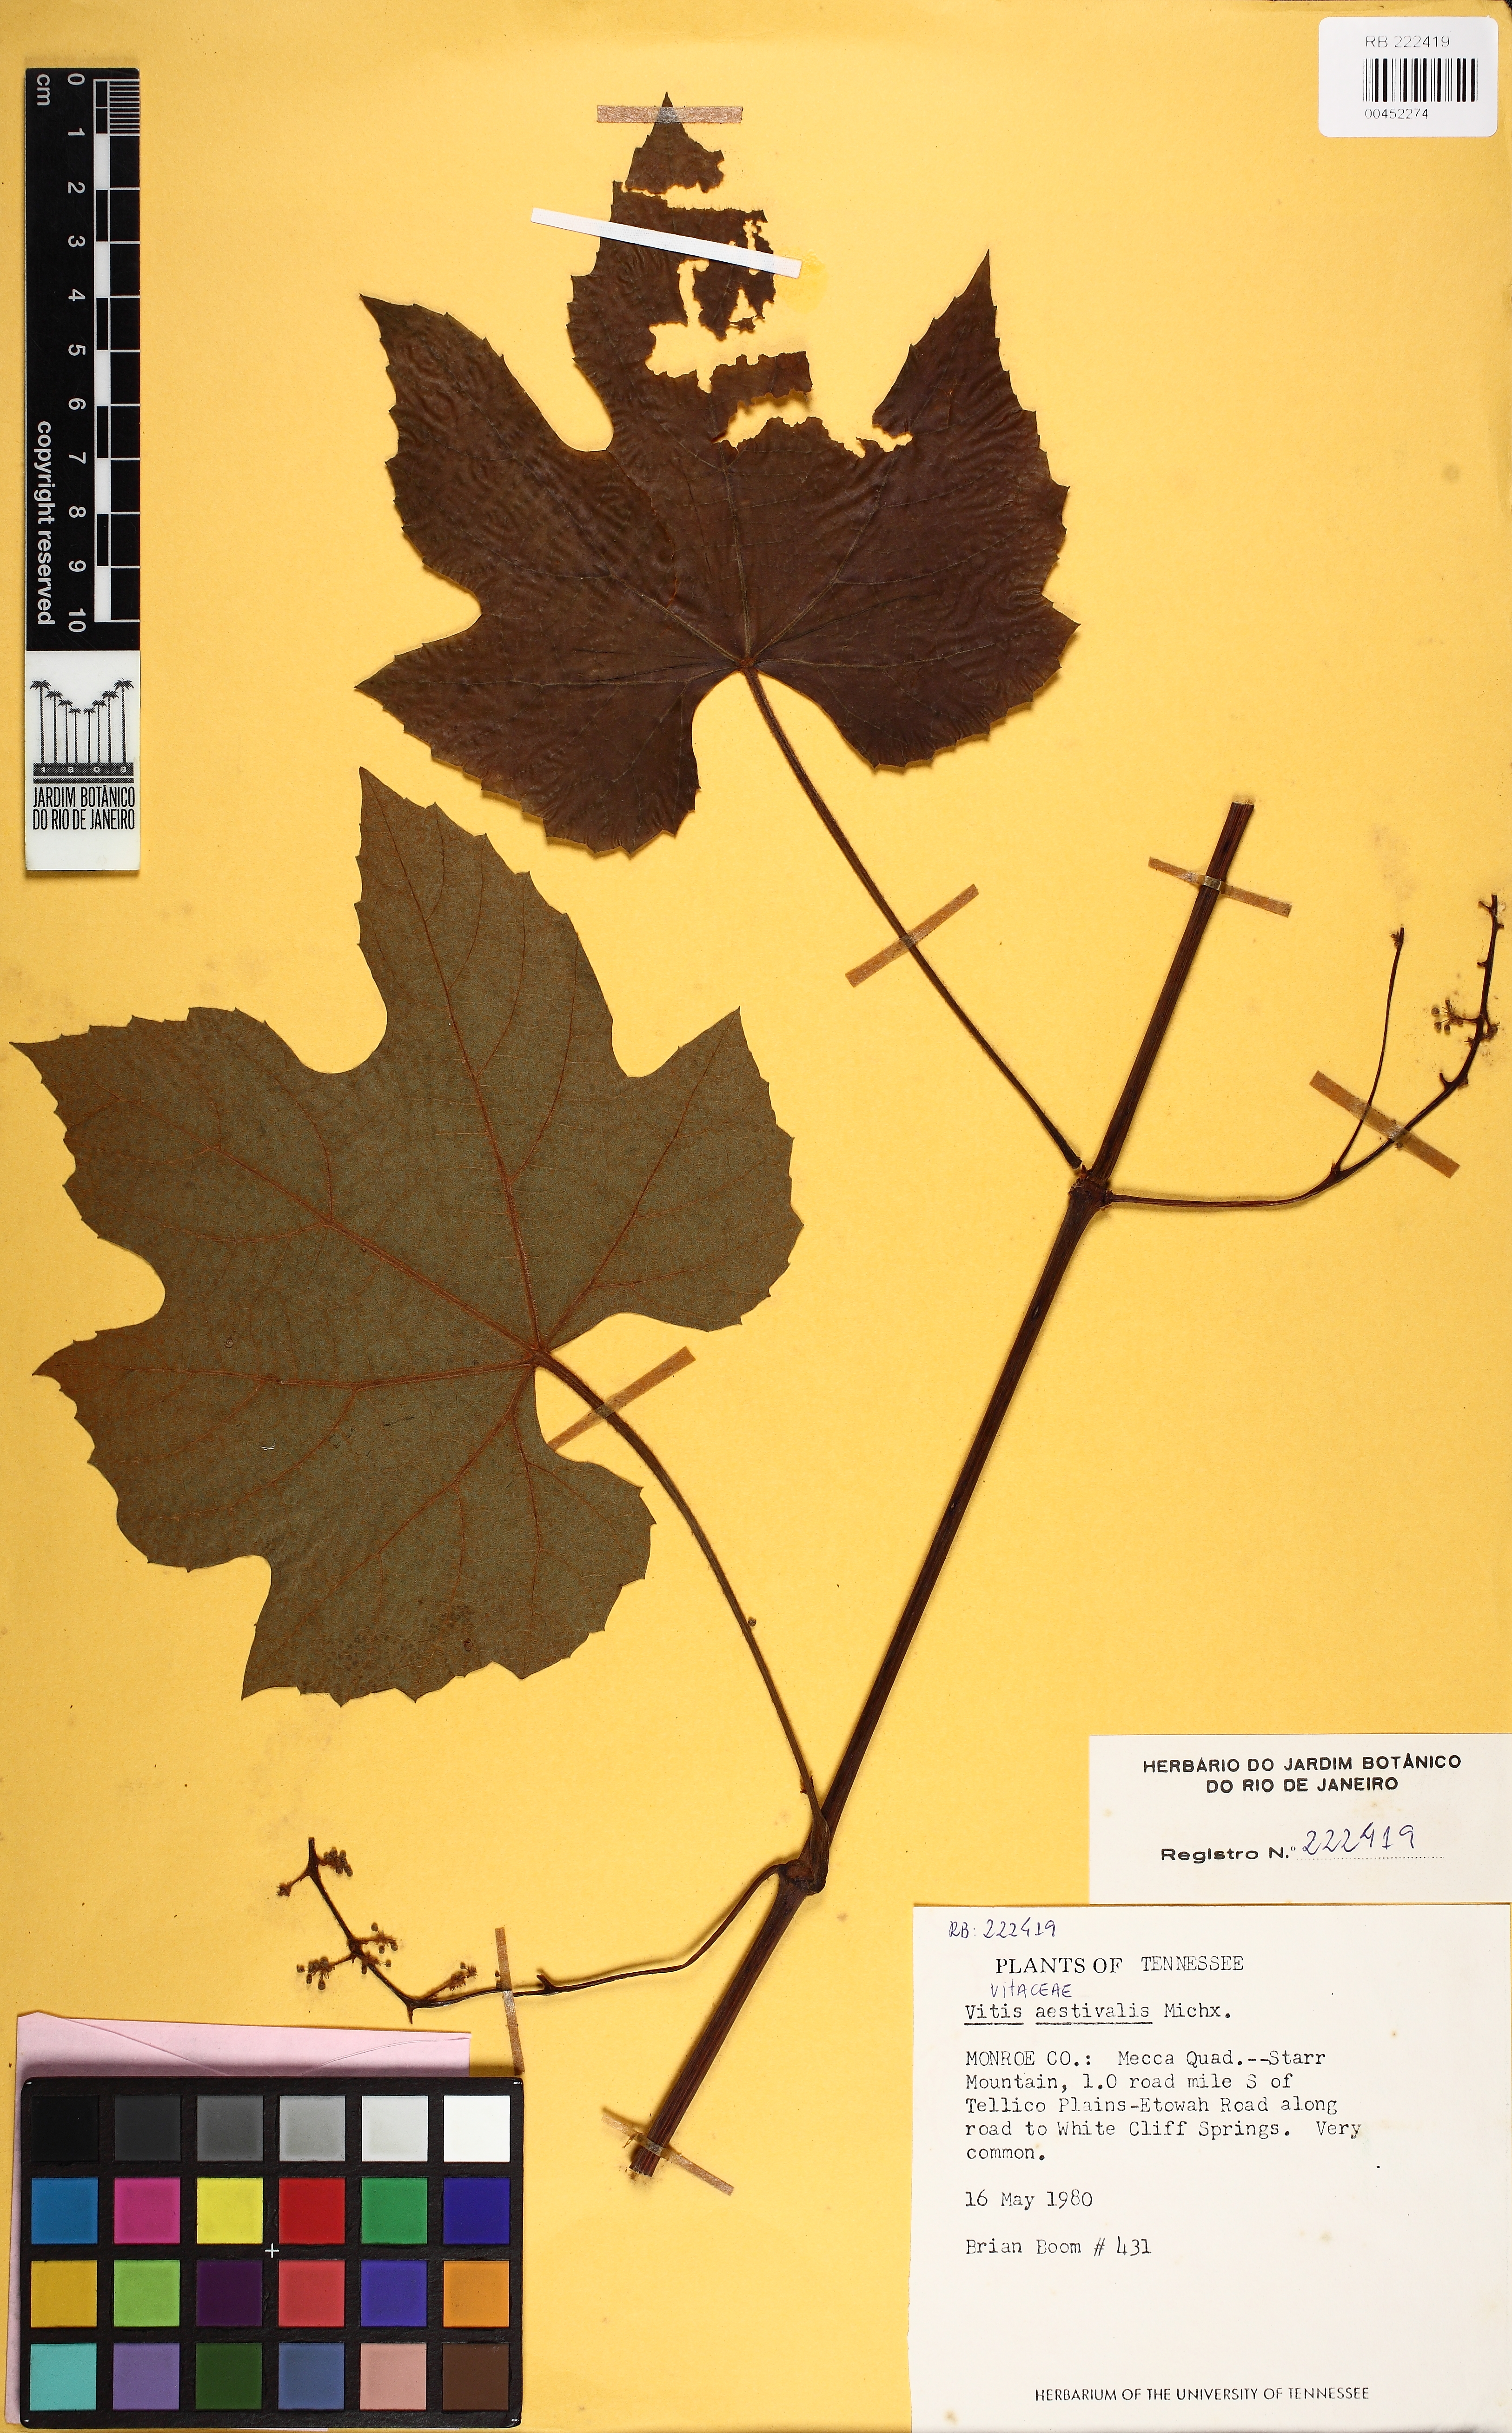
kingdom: Plantae
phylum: Tracheophyta
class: Magnoliopsida
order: Vitales
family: Vitaceae
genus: Vitis
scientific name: Vitis aestivalis
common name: Pigeon grape
